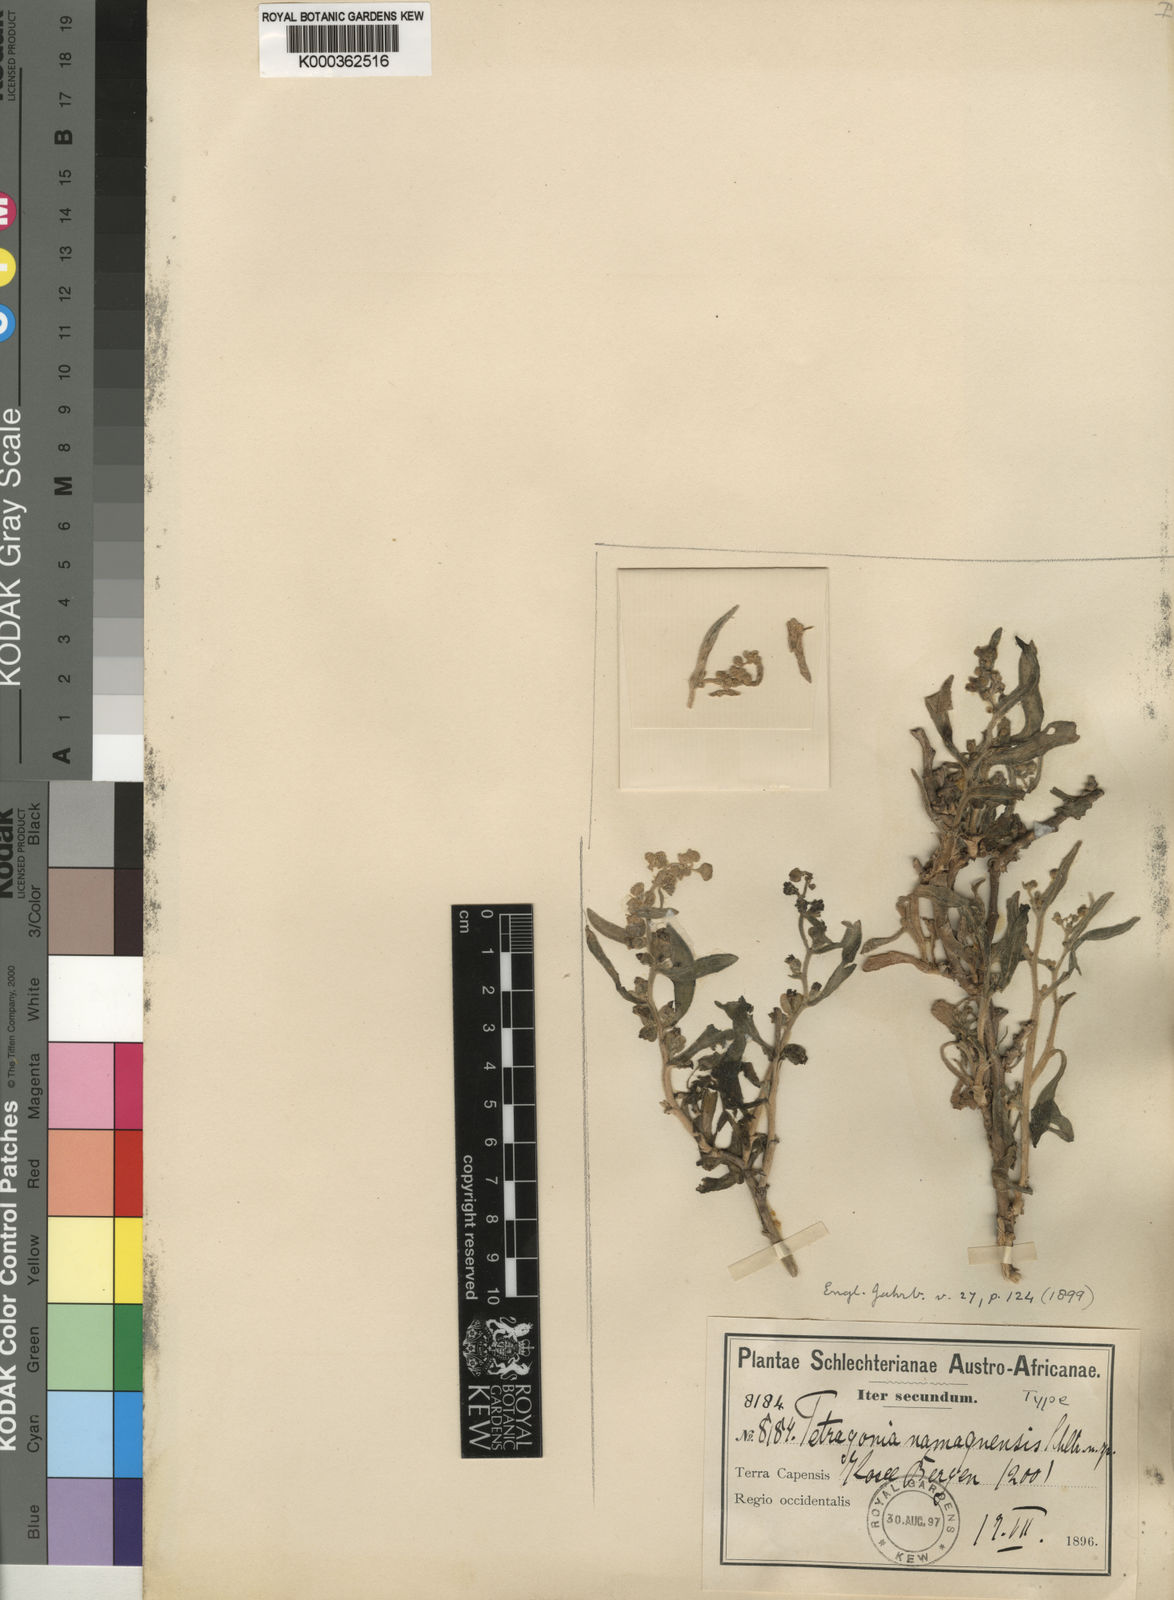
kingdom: Plantae
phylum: Tracheophyta
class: Magnoliopsida
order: Caryophyllales
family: Aizoaceae
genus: Tetragonia
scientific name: Tetragonia namaquensis
